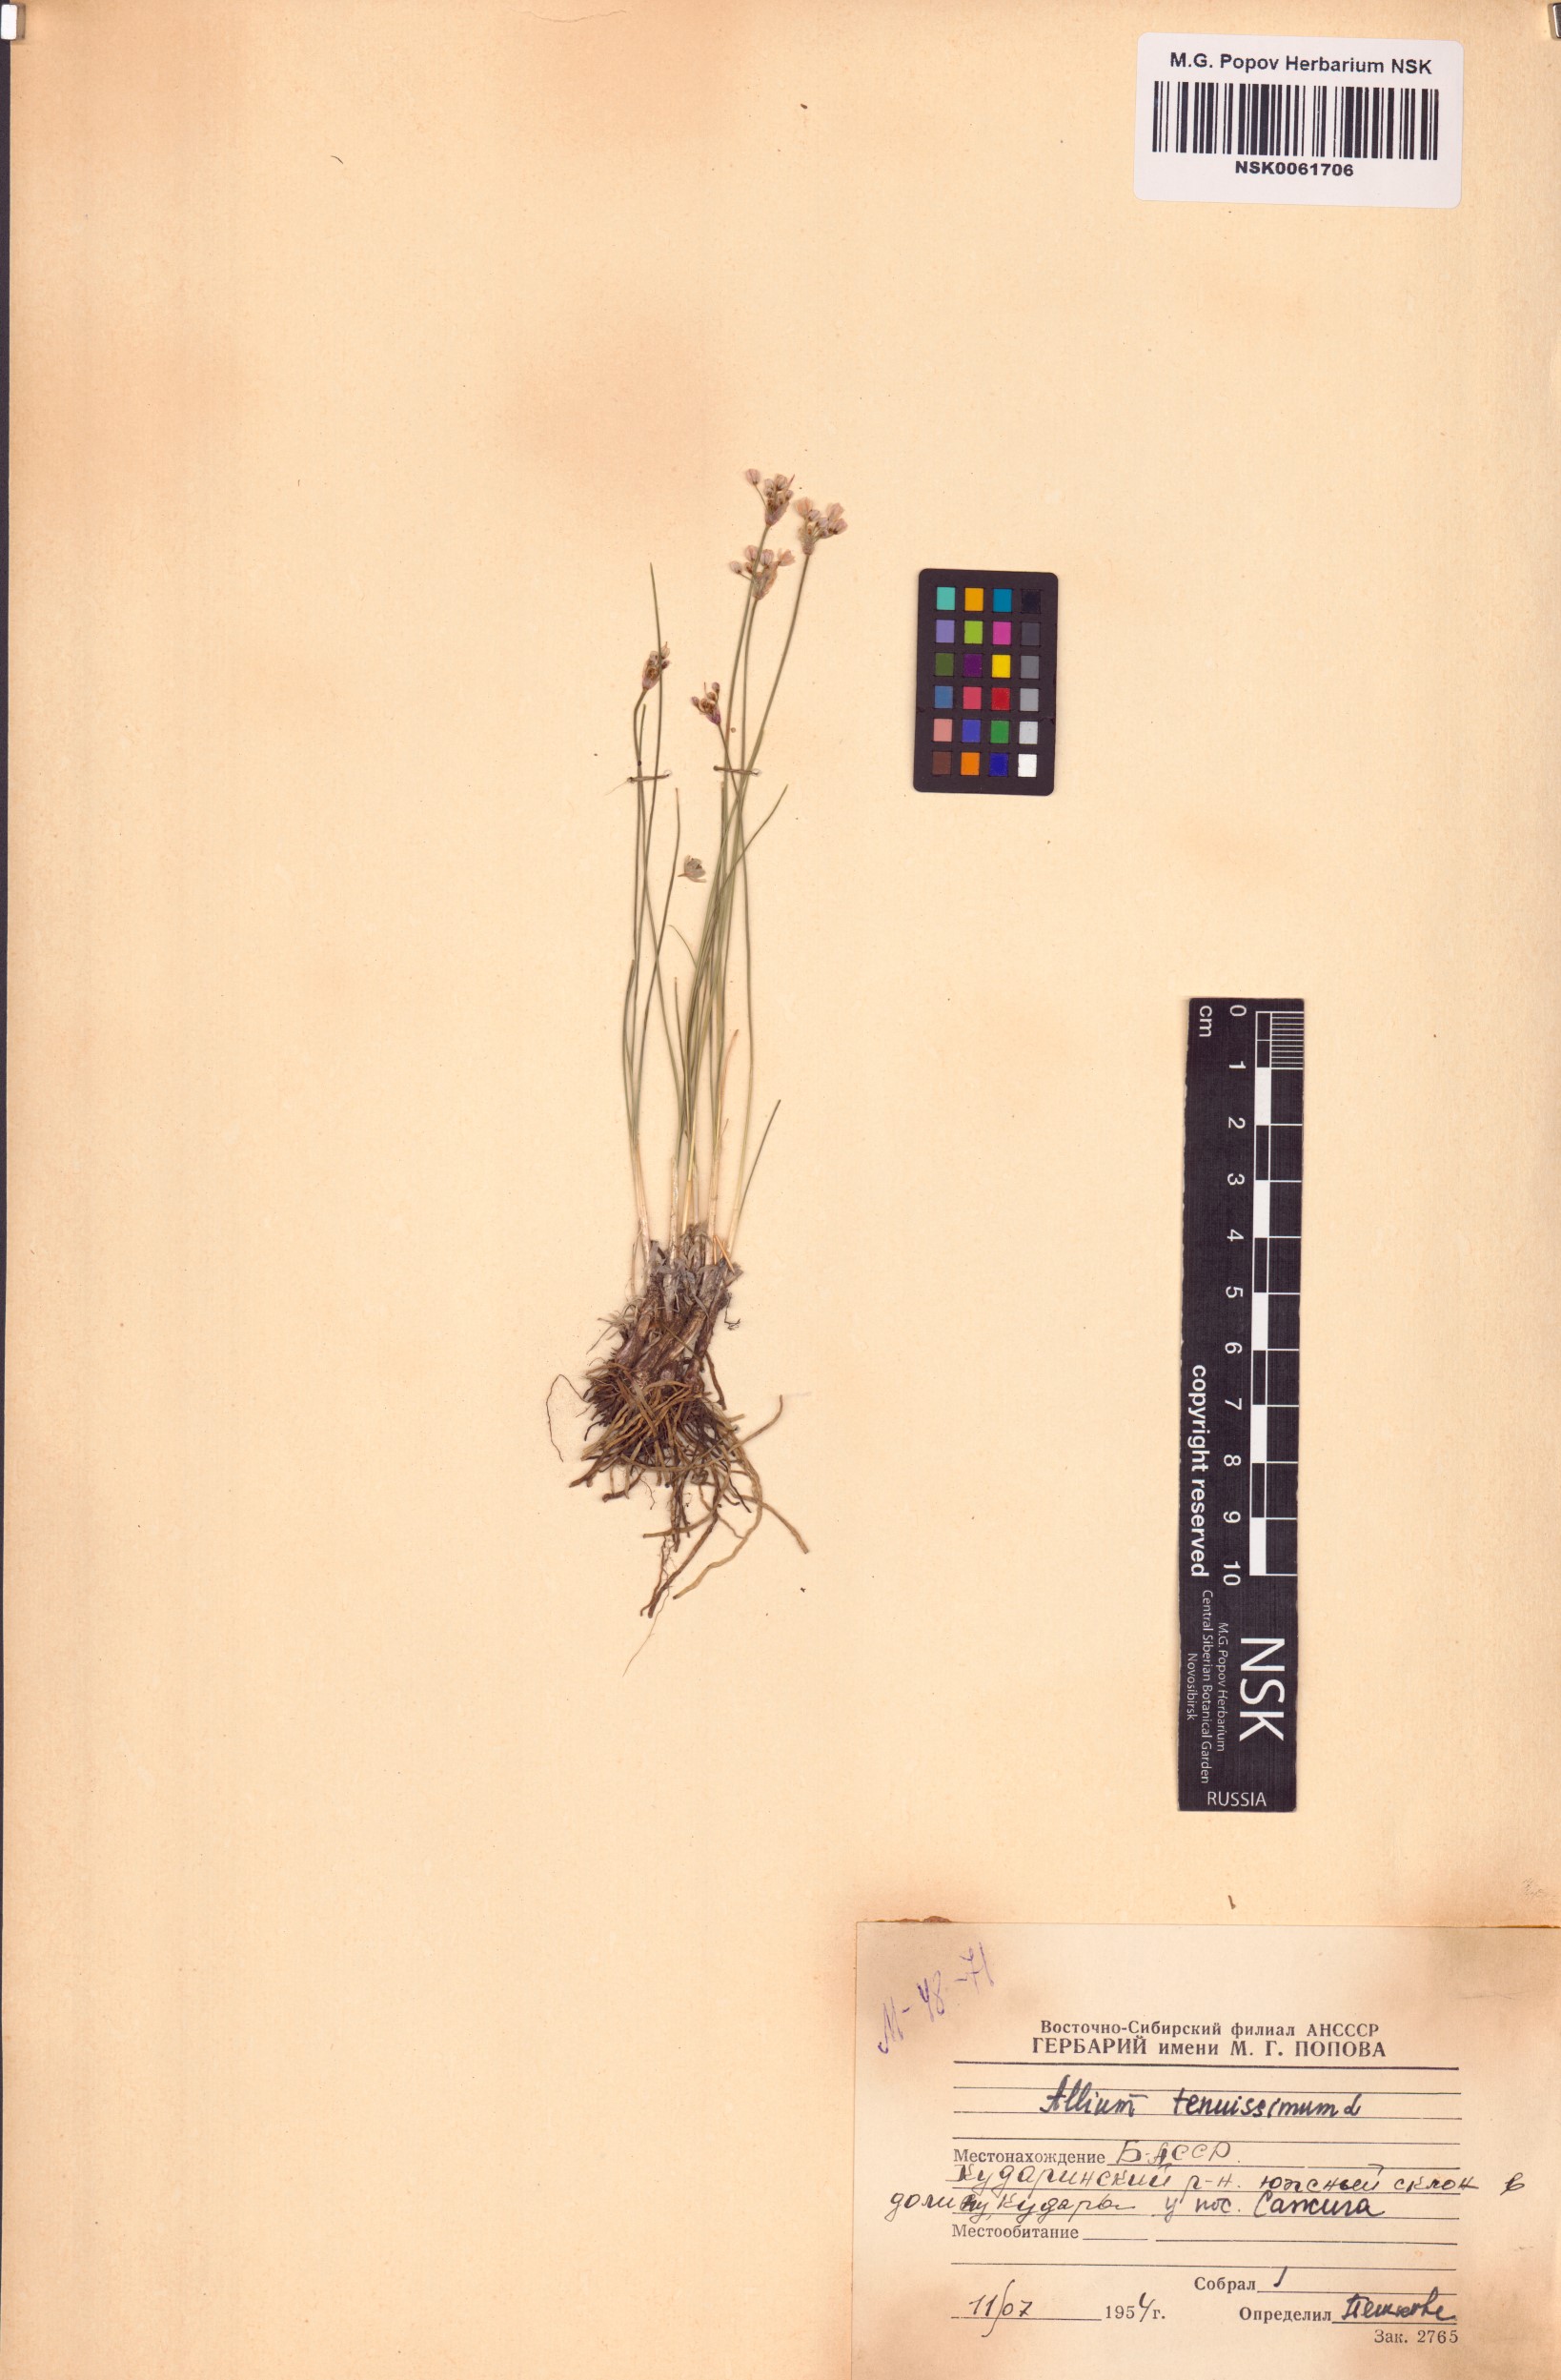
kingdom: Plantae
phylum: Tracheophyta
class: Liliopsida
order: Asparagales
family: Amaryllidaceae
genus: Allium
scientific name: Allium tenuissimum
